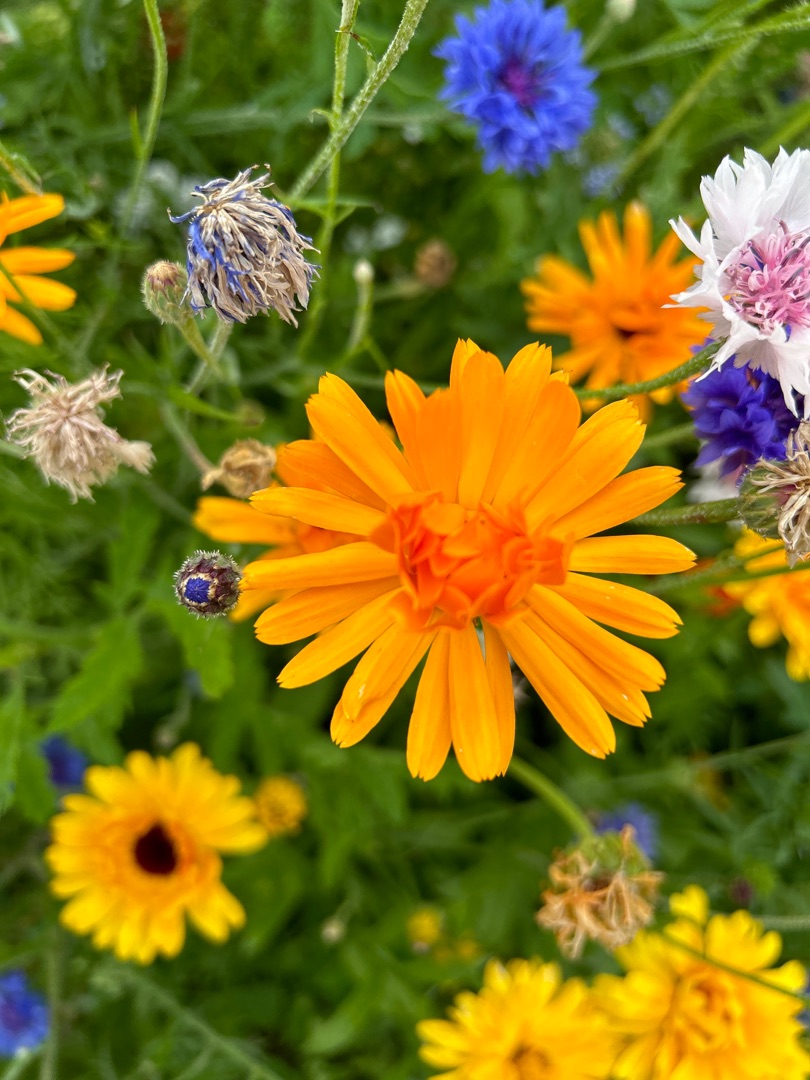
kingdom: Plantae
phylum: Tracheophyta
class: Magnoliopsida
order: Asterales
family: Asteraceae
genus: Calendula
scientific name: Calendula officinalis
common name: Have-morgenfrue
